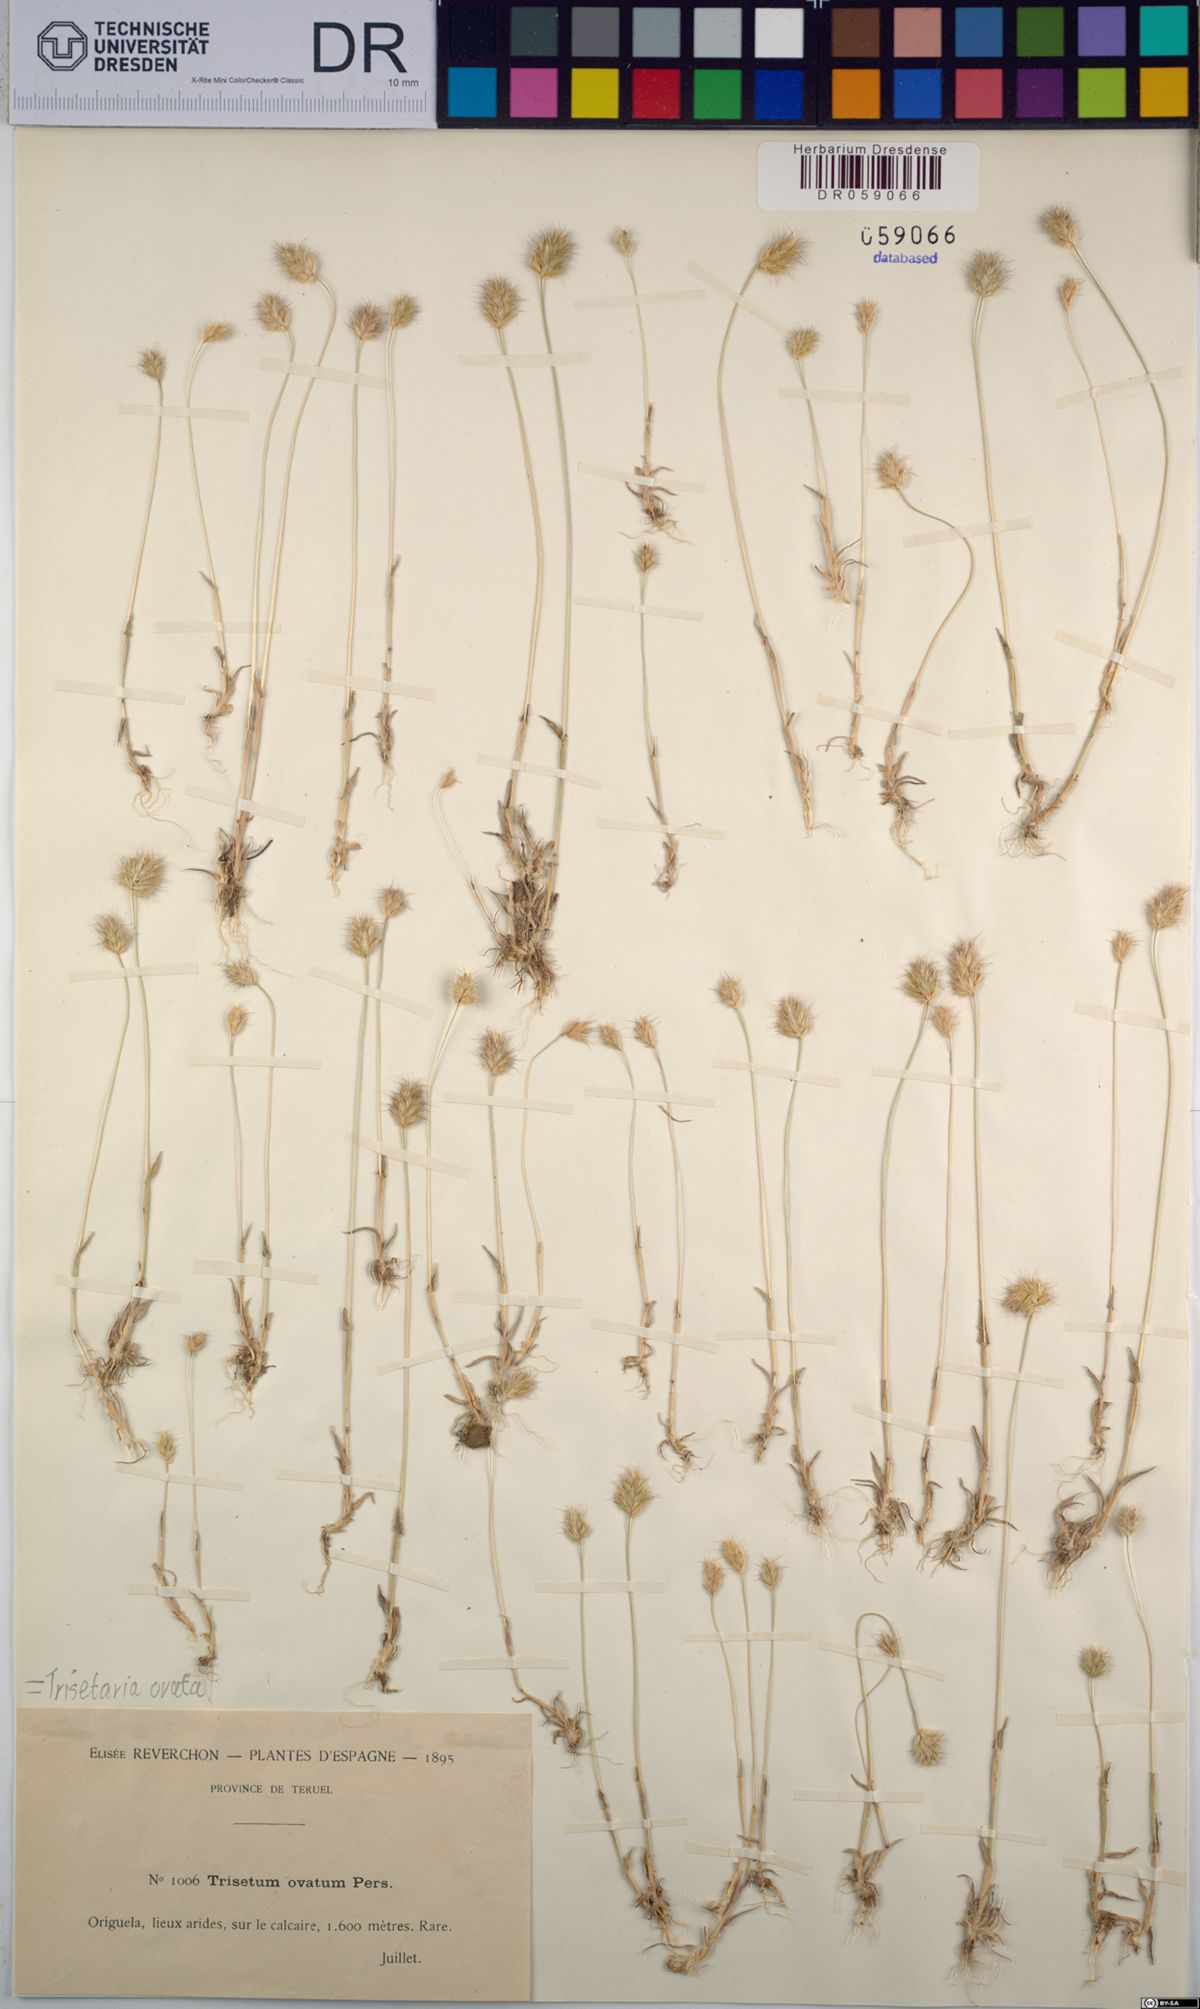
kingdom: Plantae
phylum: Tracheophyta
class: Liliopsida
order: Poales
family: Poaceae
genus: Trisetaria
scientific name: Trisetaria ovata
